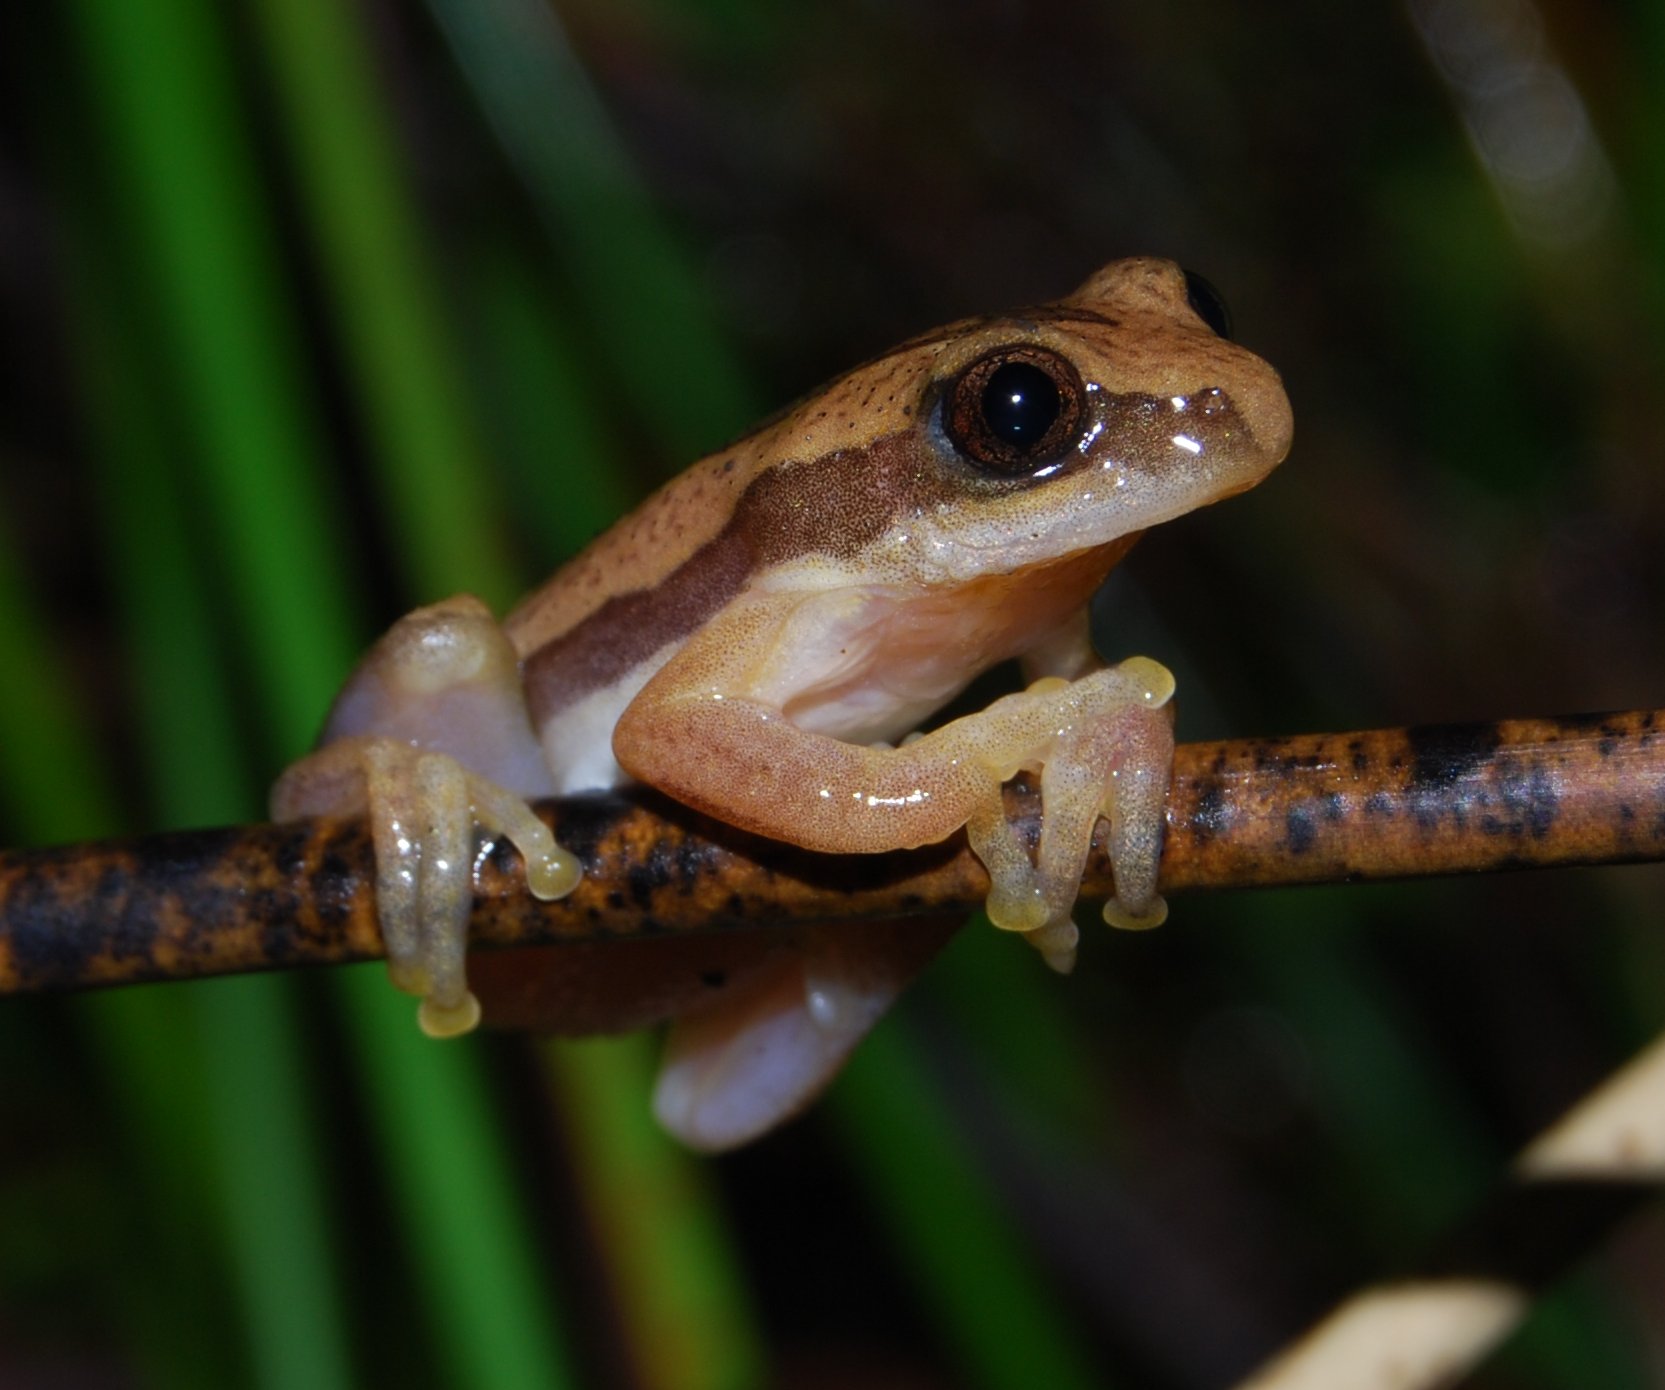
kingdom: Animalia
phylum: Chordata
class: Amphibia
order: Anura
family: Hyperoliidae
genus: Afrixalus
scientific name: Afrixalus wittei
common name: De witte's leaping frog
